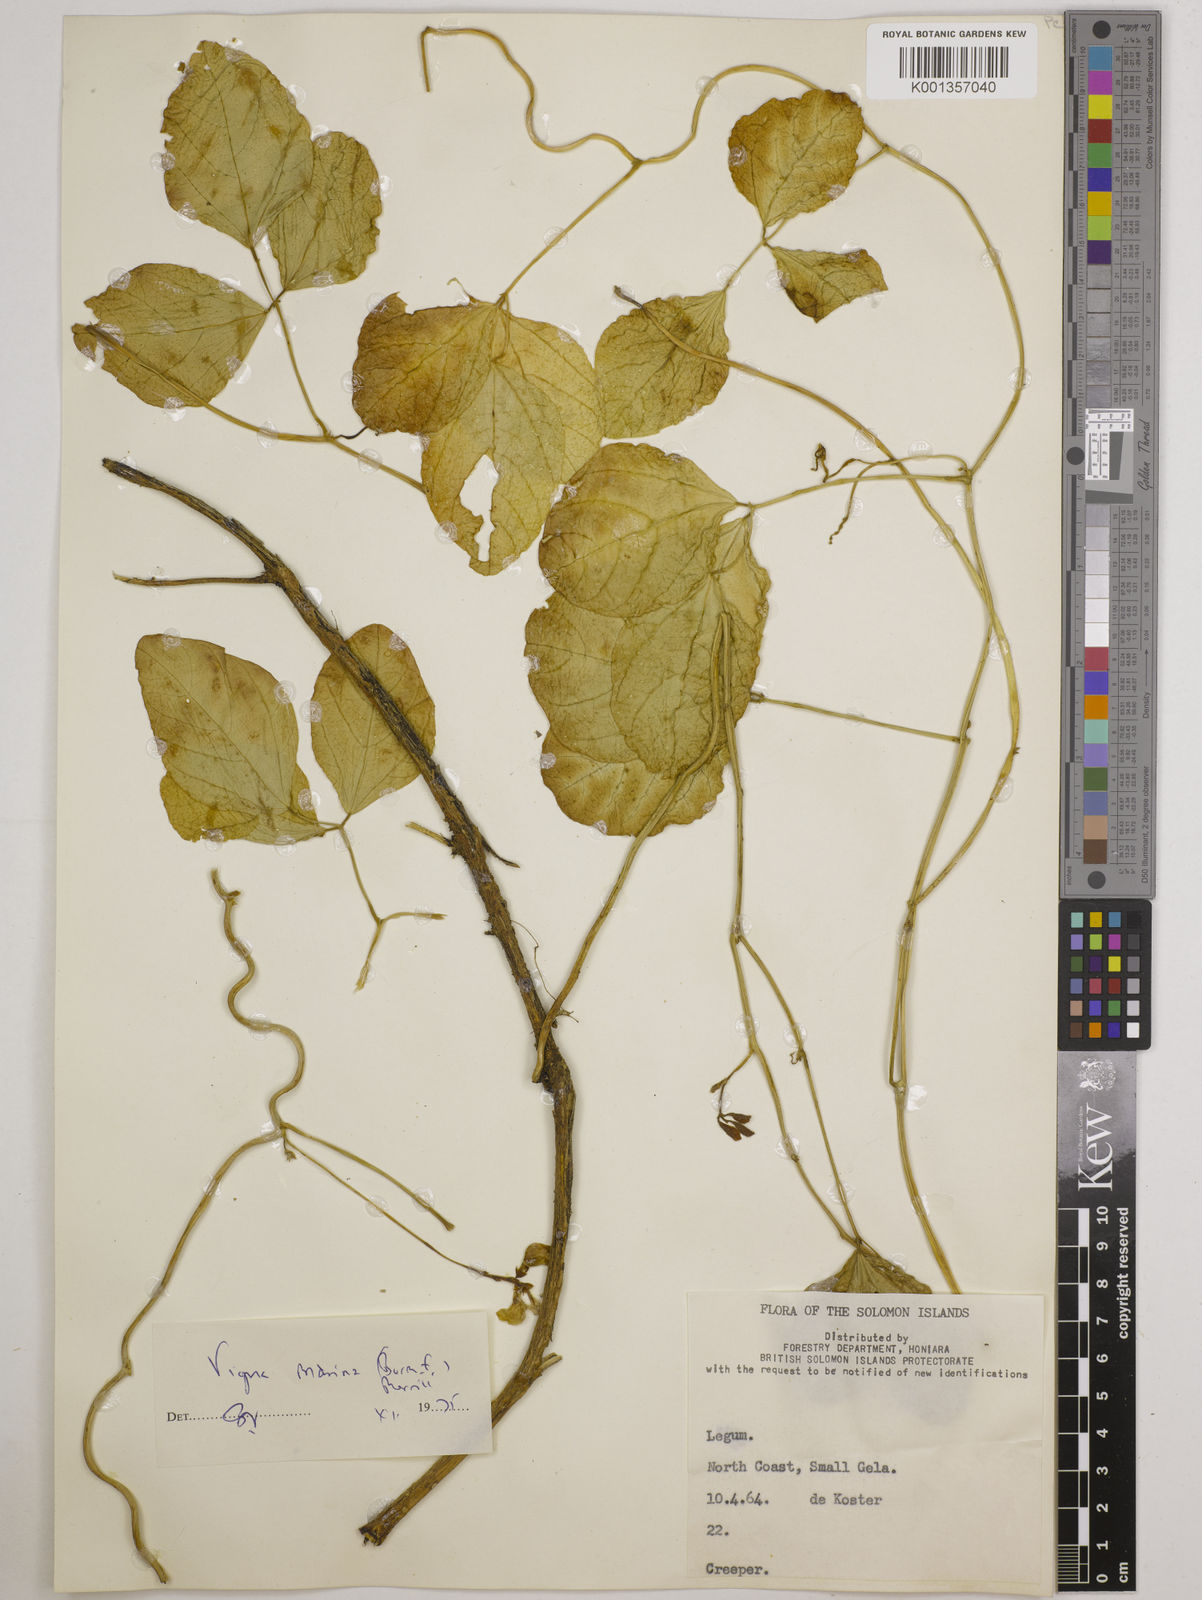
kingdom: Plantae
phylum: Tracheophyta
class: Magnoliopsida
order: Fabales
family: Fabaceae
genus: Vigna
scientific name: Vigna marina
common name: Dune-bean
